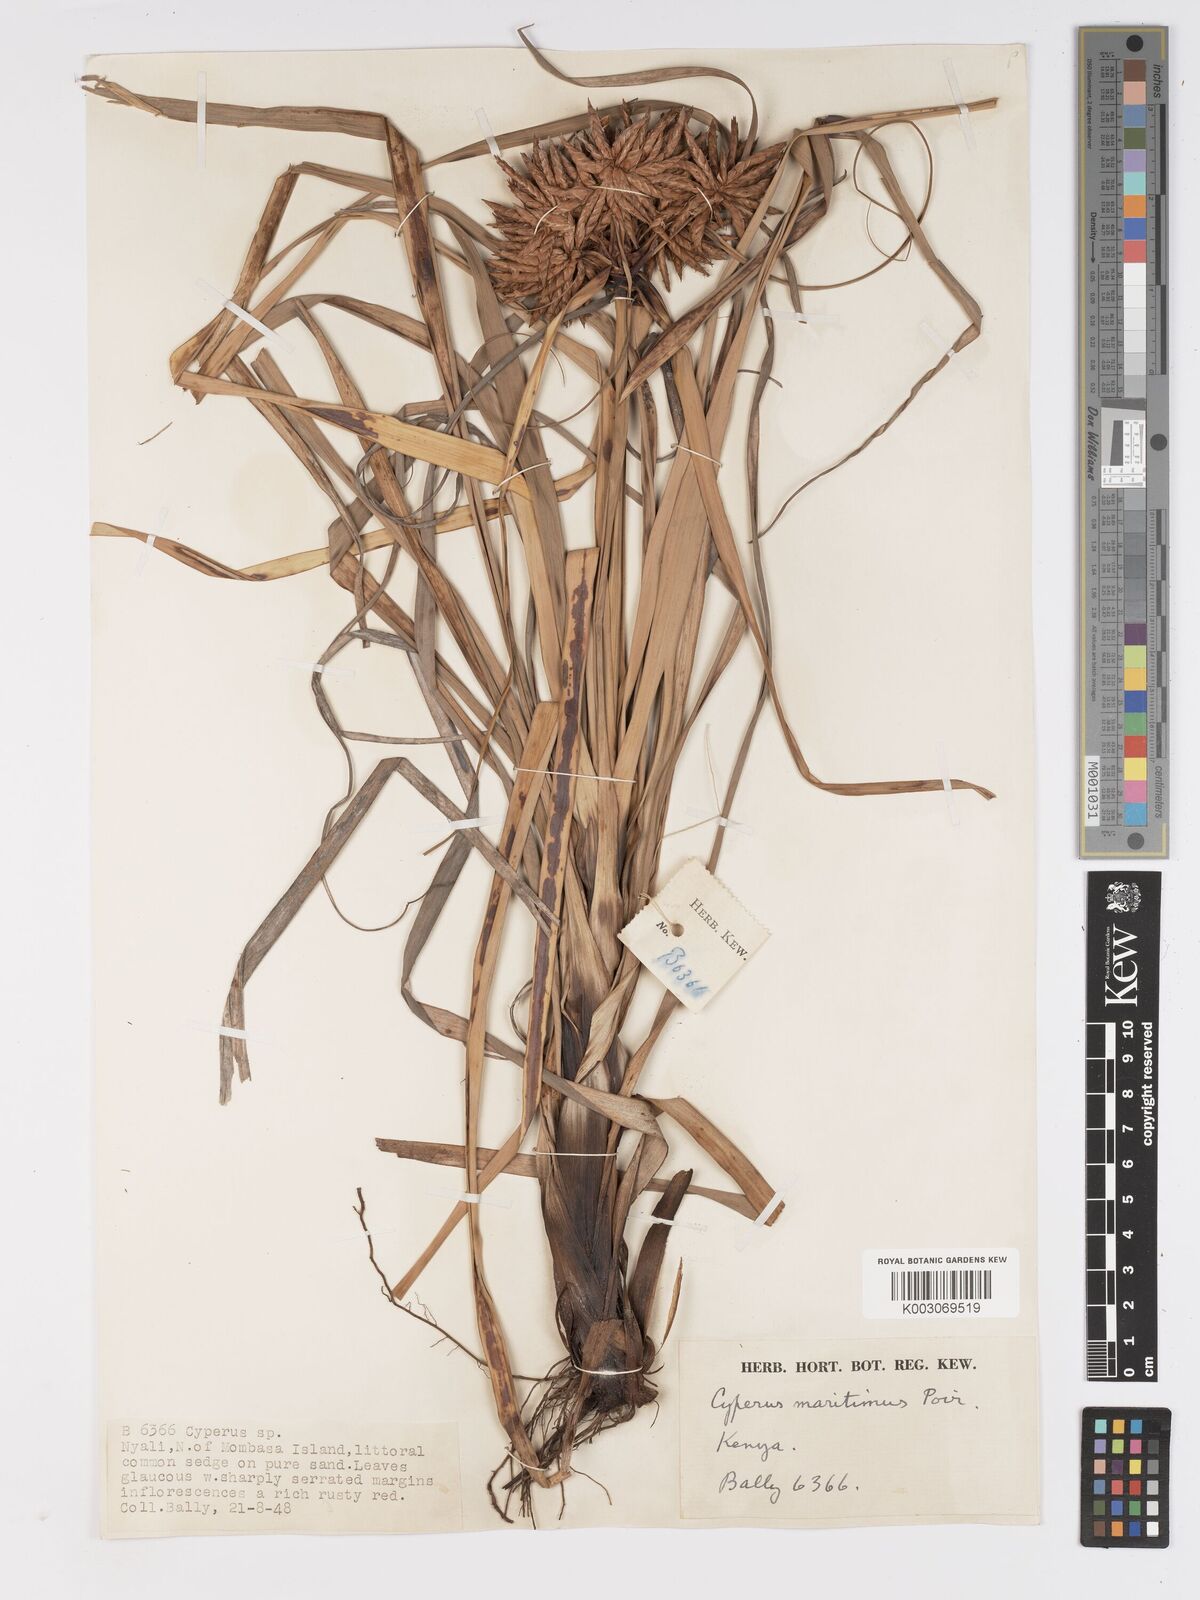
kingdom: Plantae
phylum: Tracheophyta
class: Liliopsida
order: Poales
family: Cyperaceae
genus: Cyperus
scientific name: Cyperus crassipes
